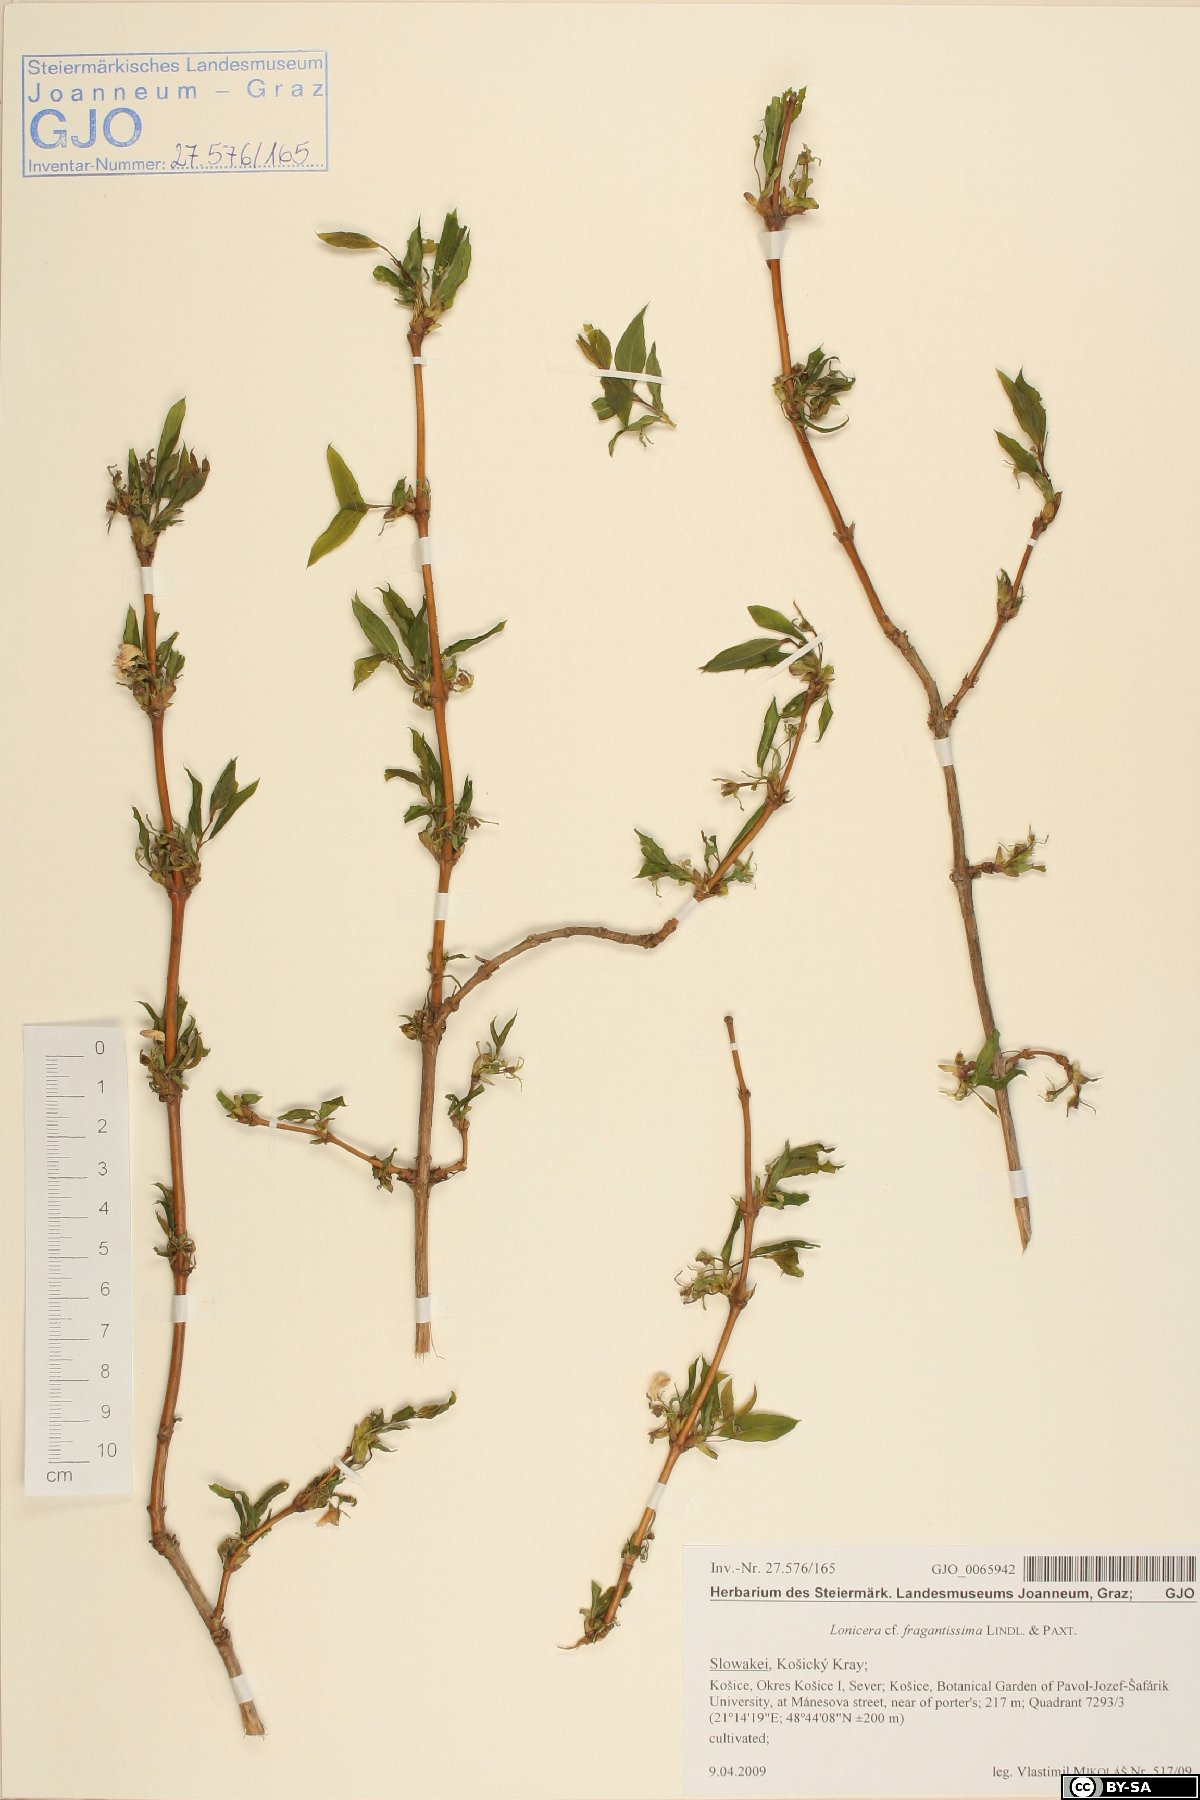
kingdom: Plantae
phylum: Tracheophyta
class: Magnoliopsida
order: Dipsacales
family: Caprifoliaceae
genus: Lonicera
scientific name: Lonicera fragrantissima
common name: Fragrant honeysuckle
